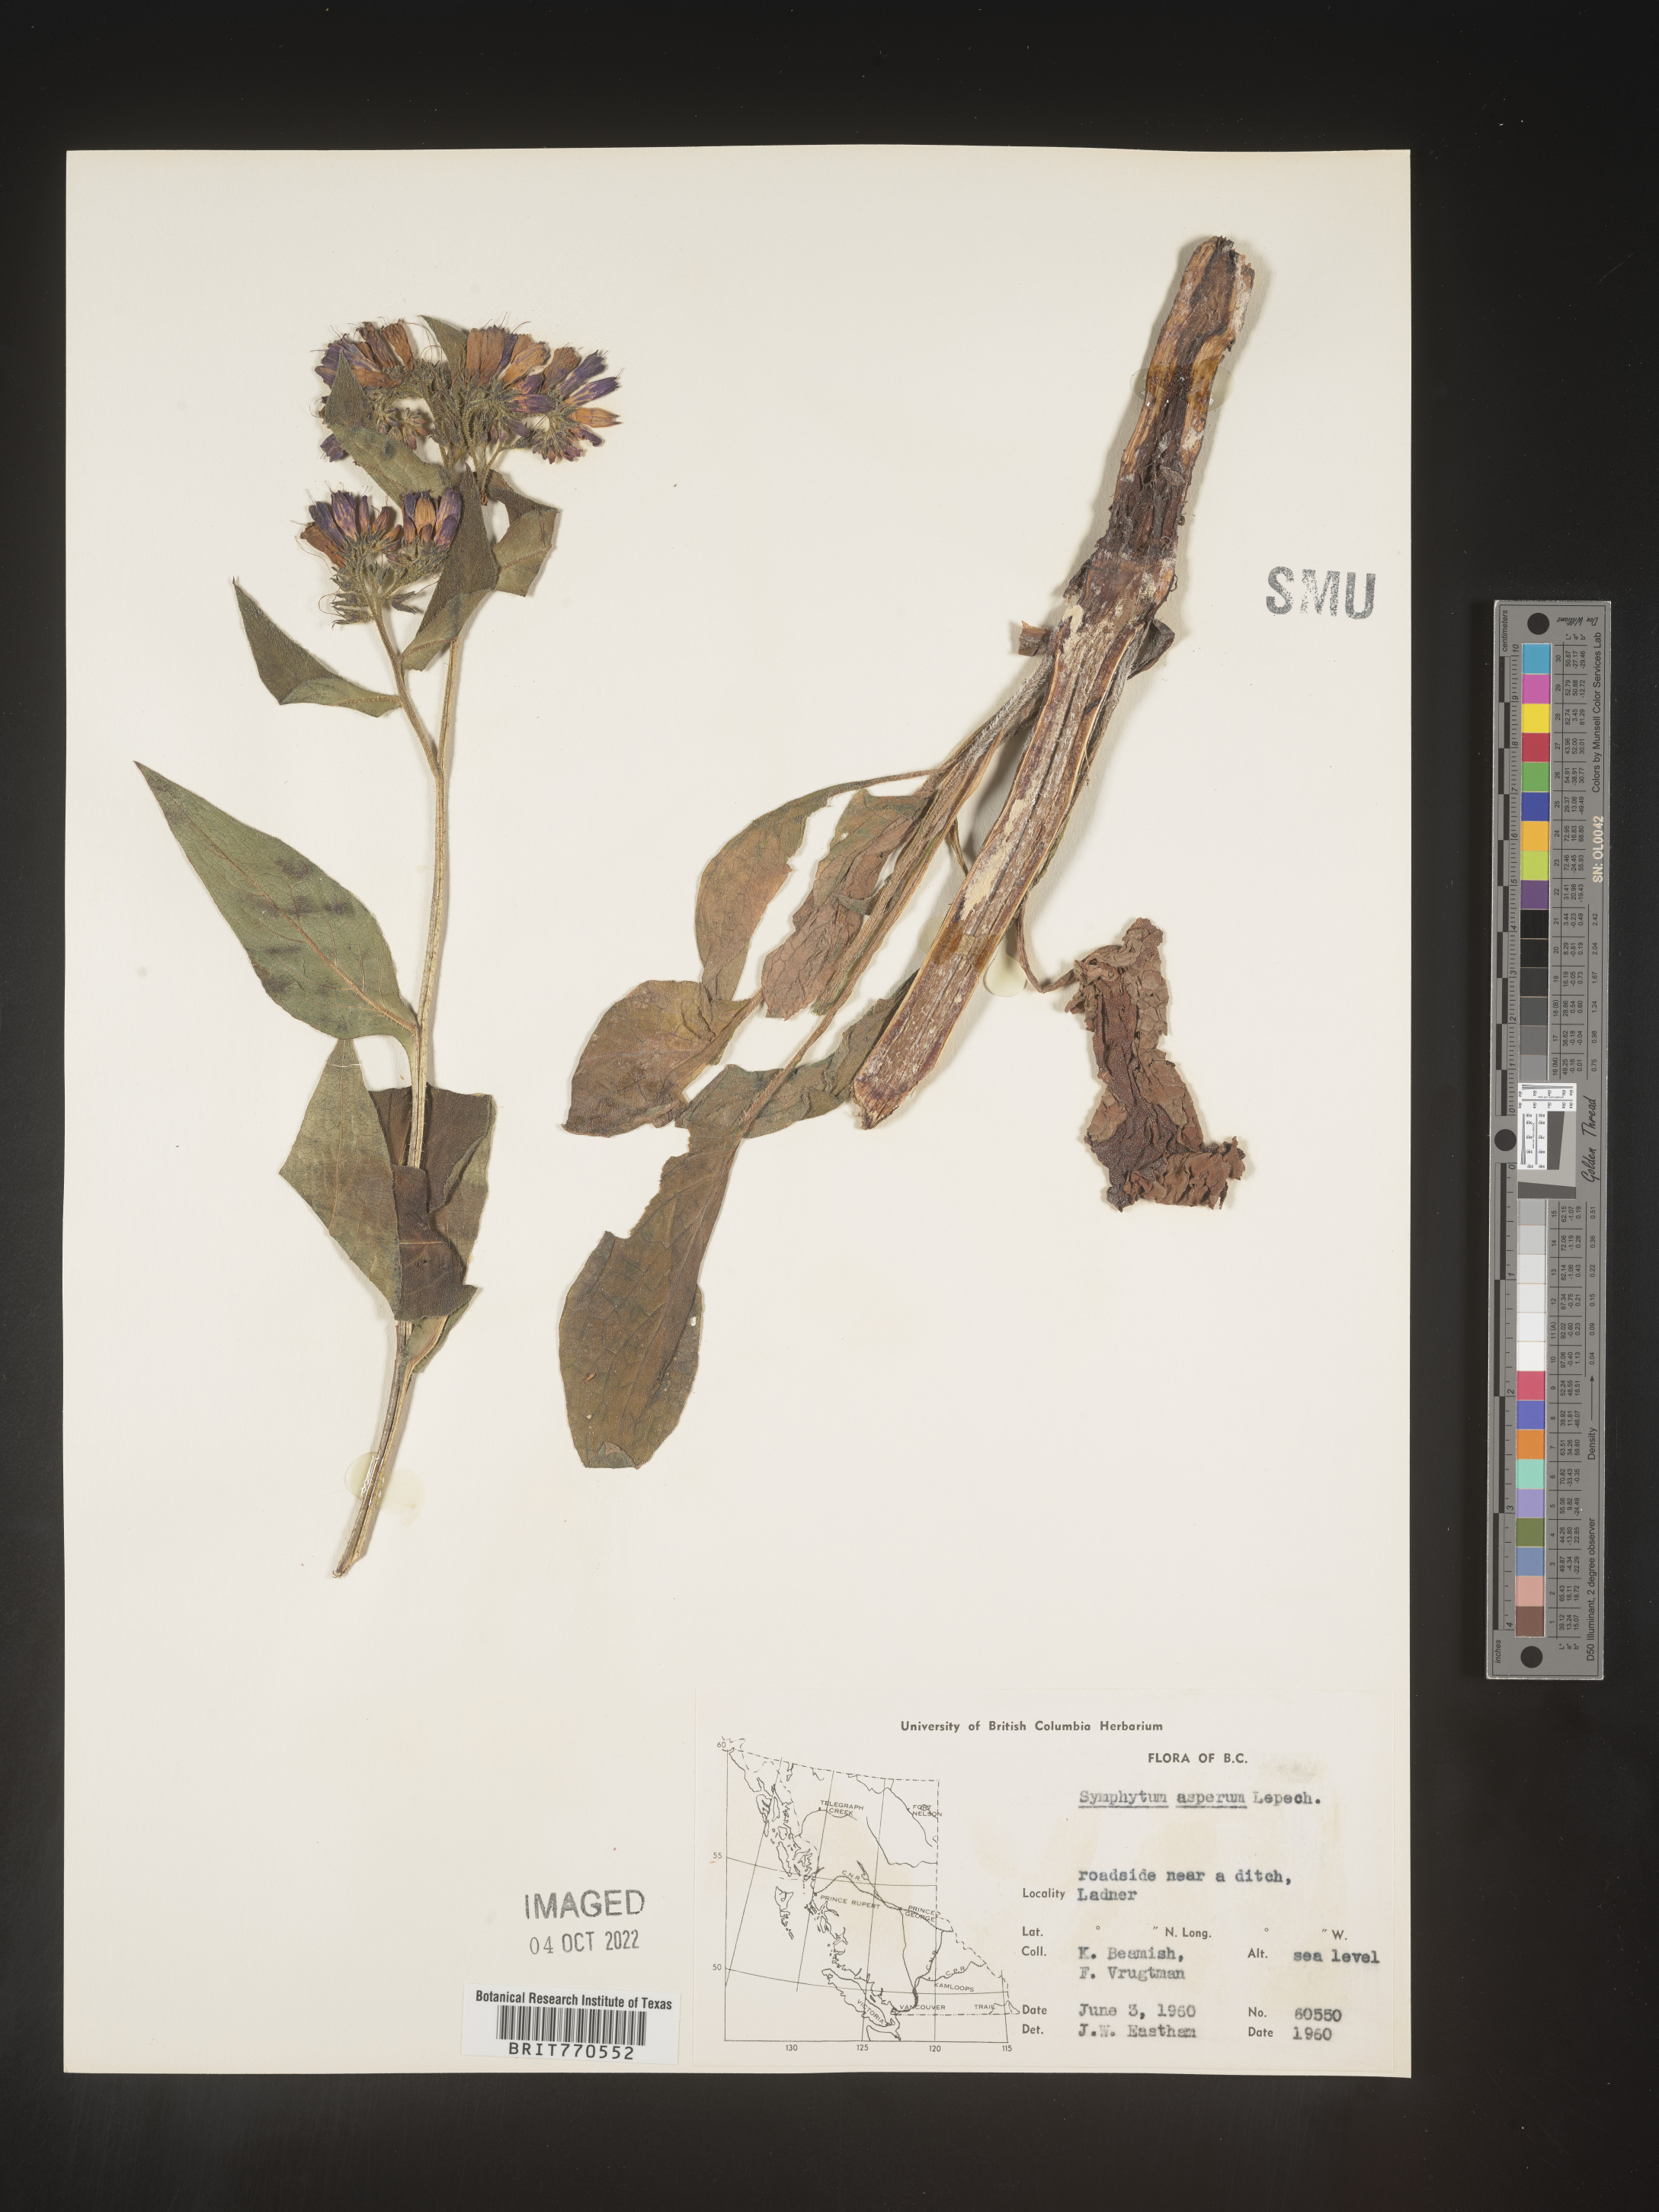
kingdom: Plantae
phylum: Tracheophyta
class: Magnoliopsida
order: Boraginales
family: Boraginaceae
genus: Symphytum
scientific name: Symphytum
